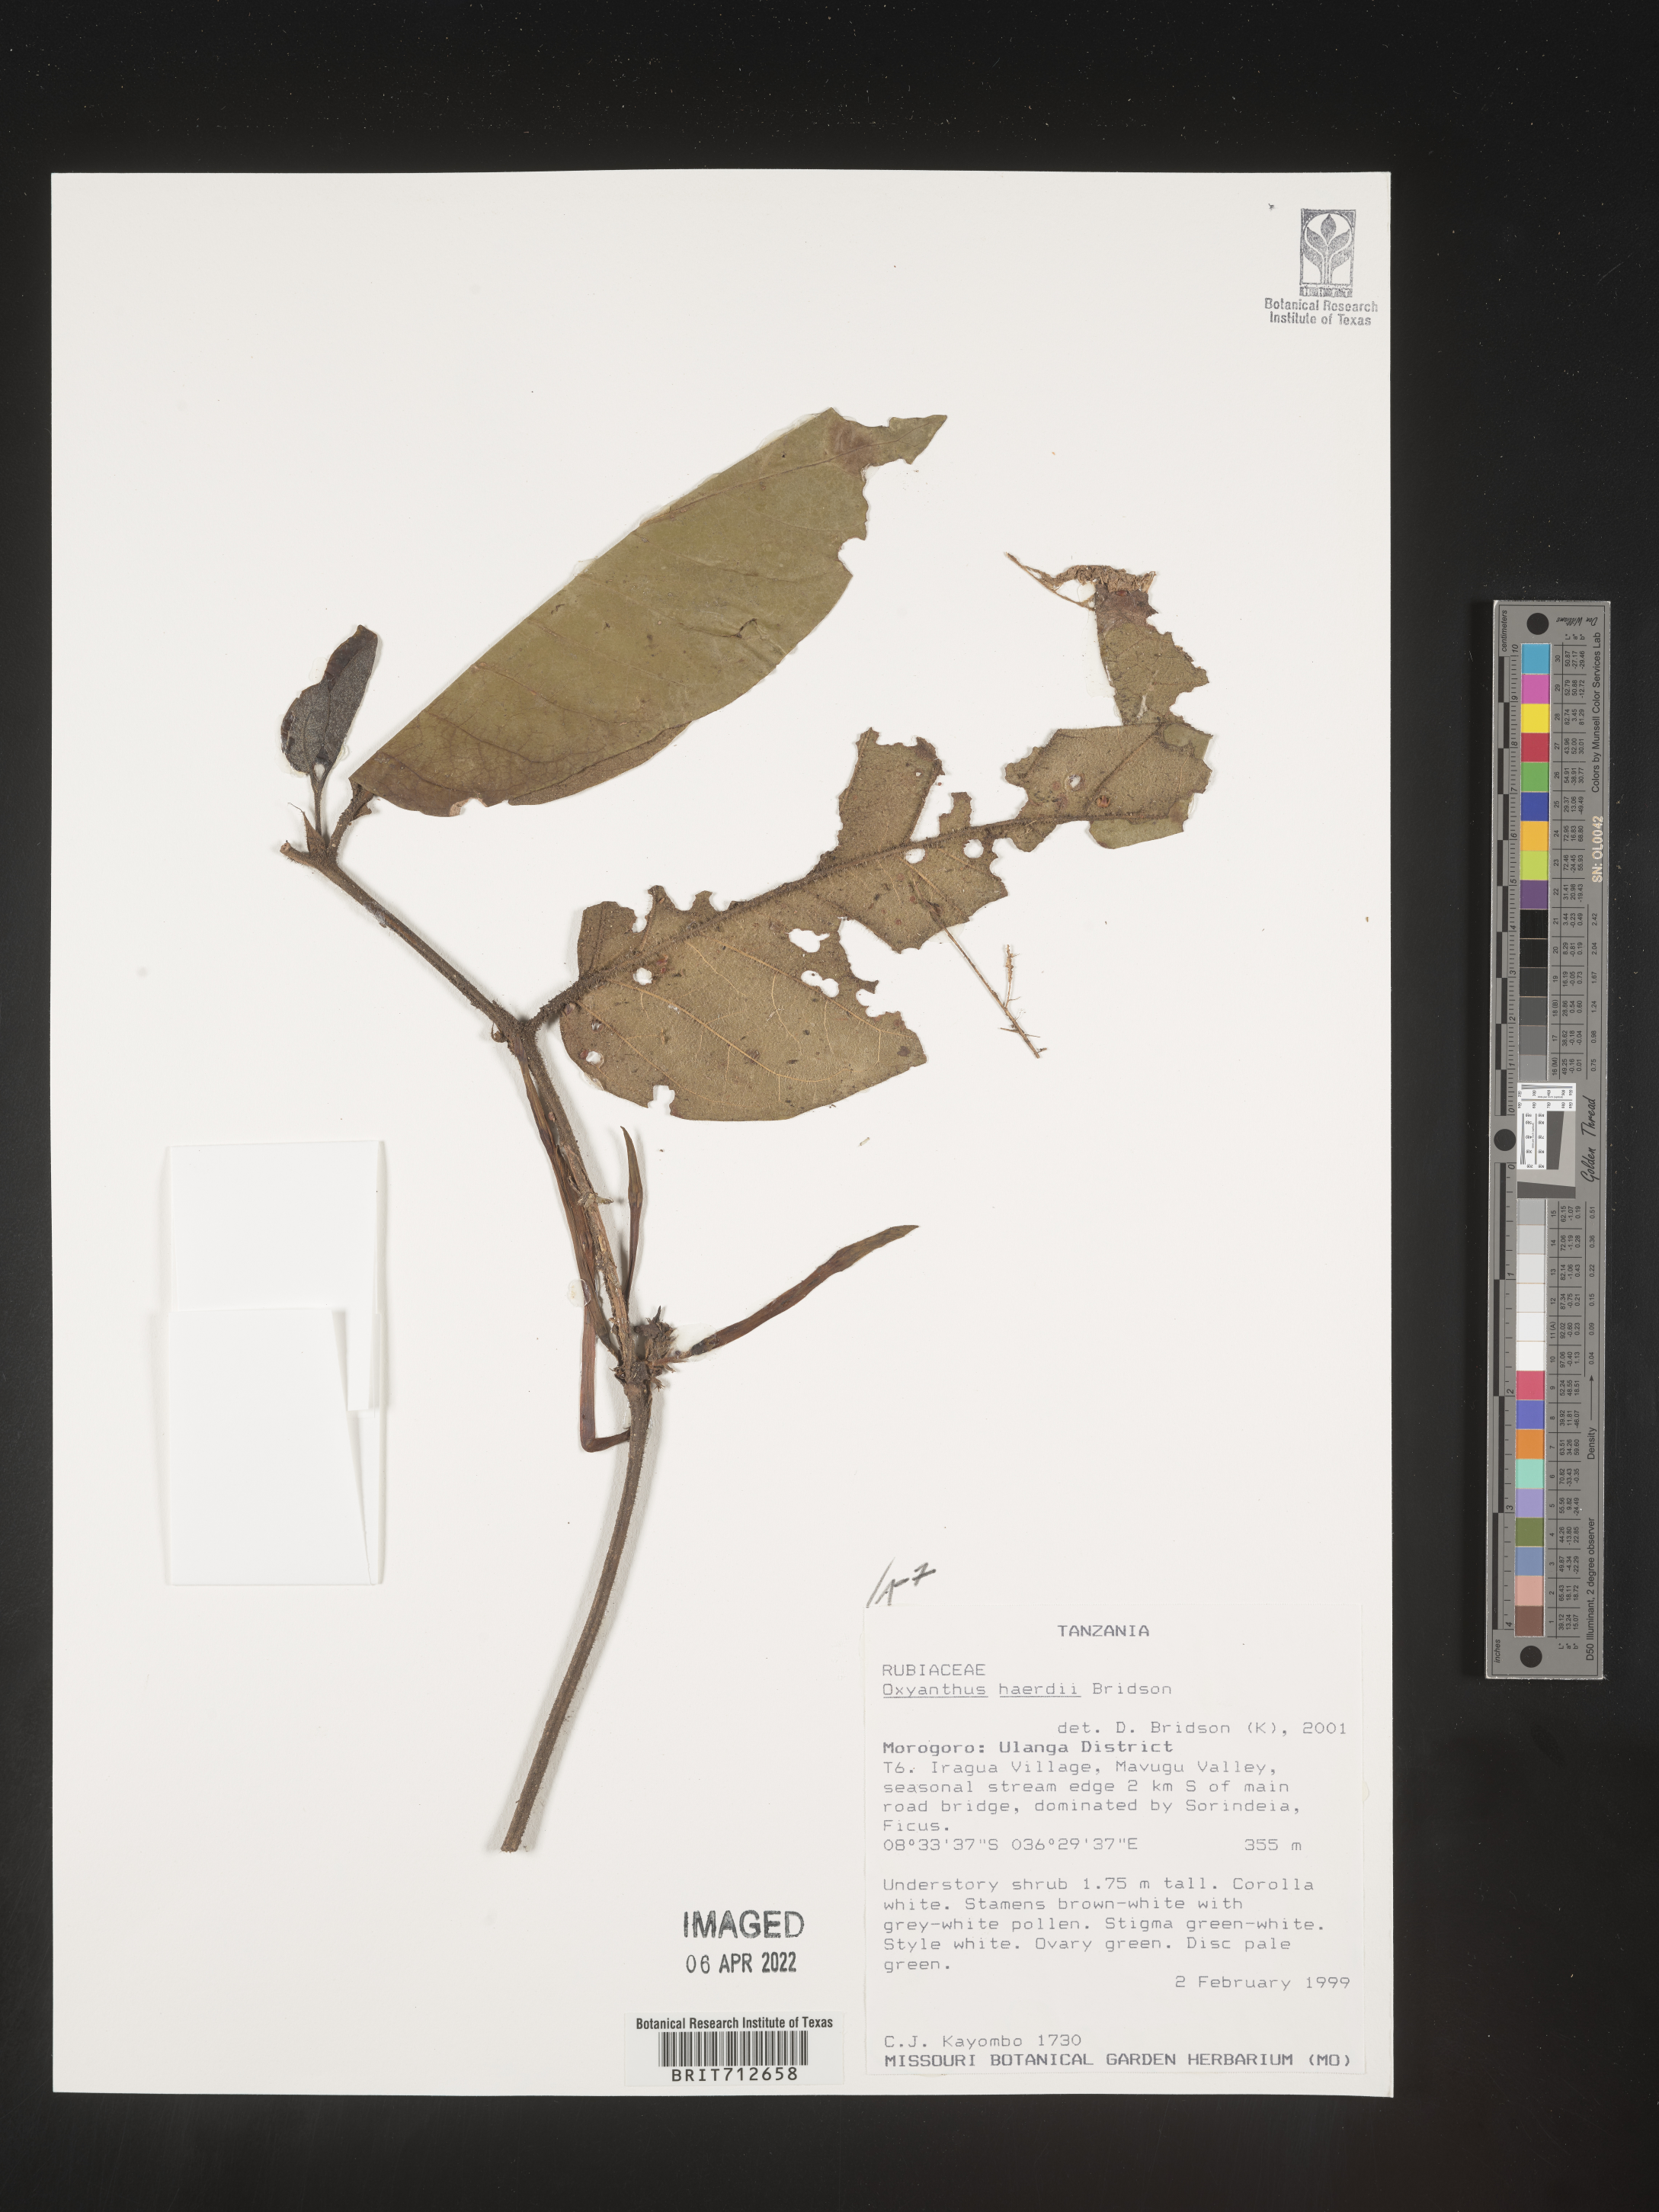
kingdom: Plantae
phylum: Tracheophyta
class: Magnoliopsida
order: Gentianales
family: Rubiaceae
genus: Oxyanthus
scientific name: Oxyanthus
